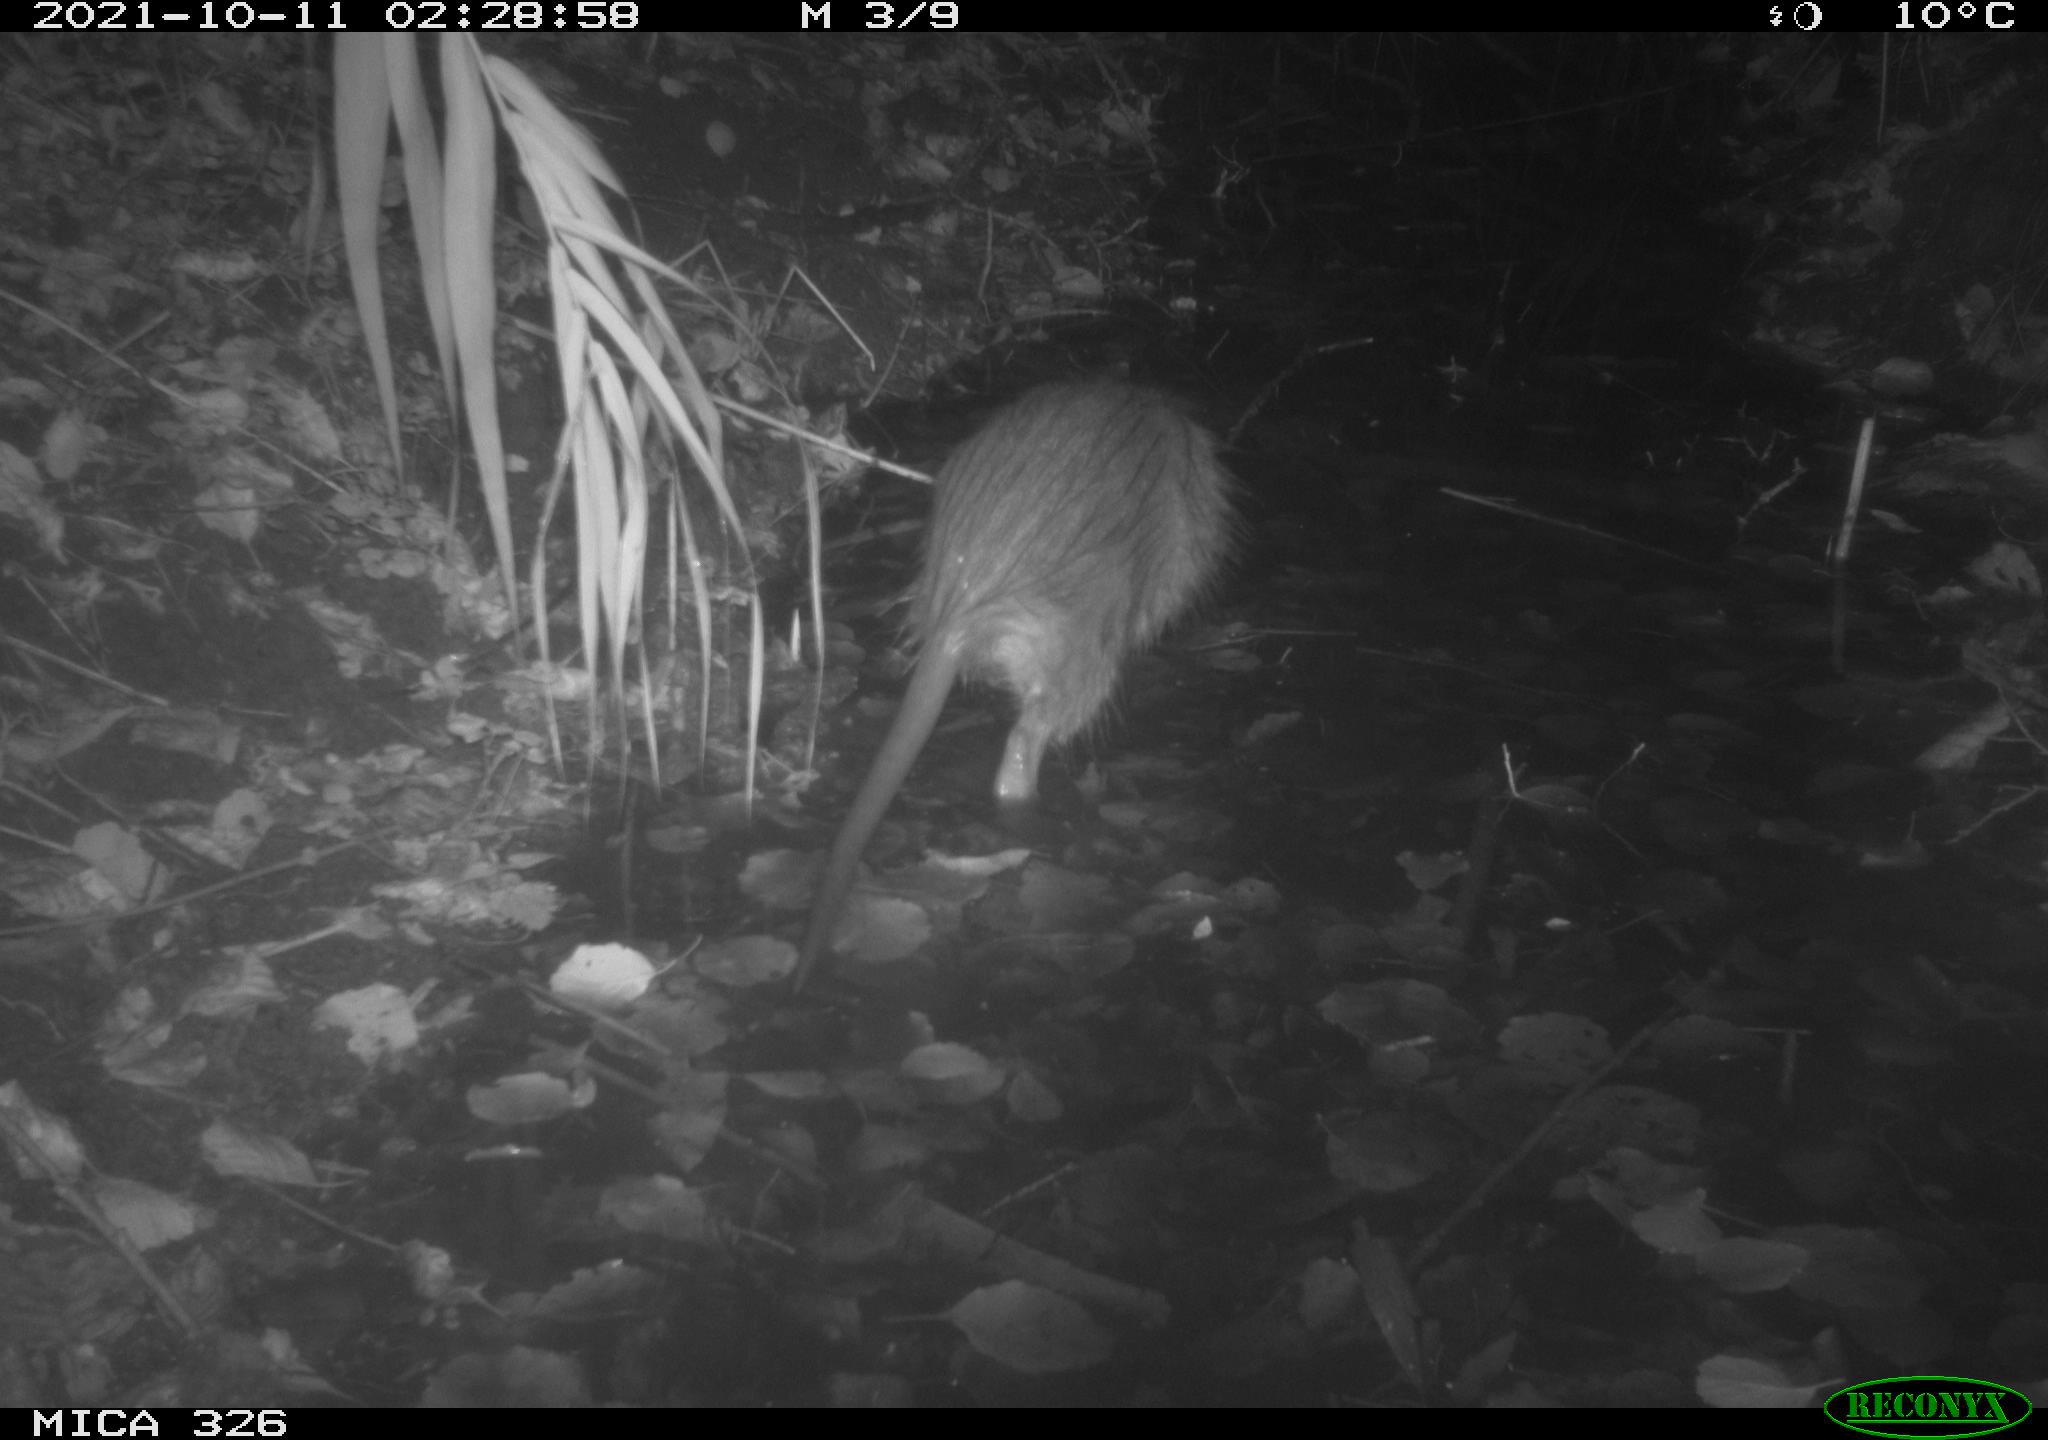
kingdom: Animalia
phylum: Chordata
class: Mammalia
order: Rodentia
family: Myocastoridae
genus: Myocastor
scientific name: Myocastor coypus
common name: Coypu
